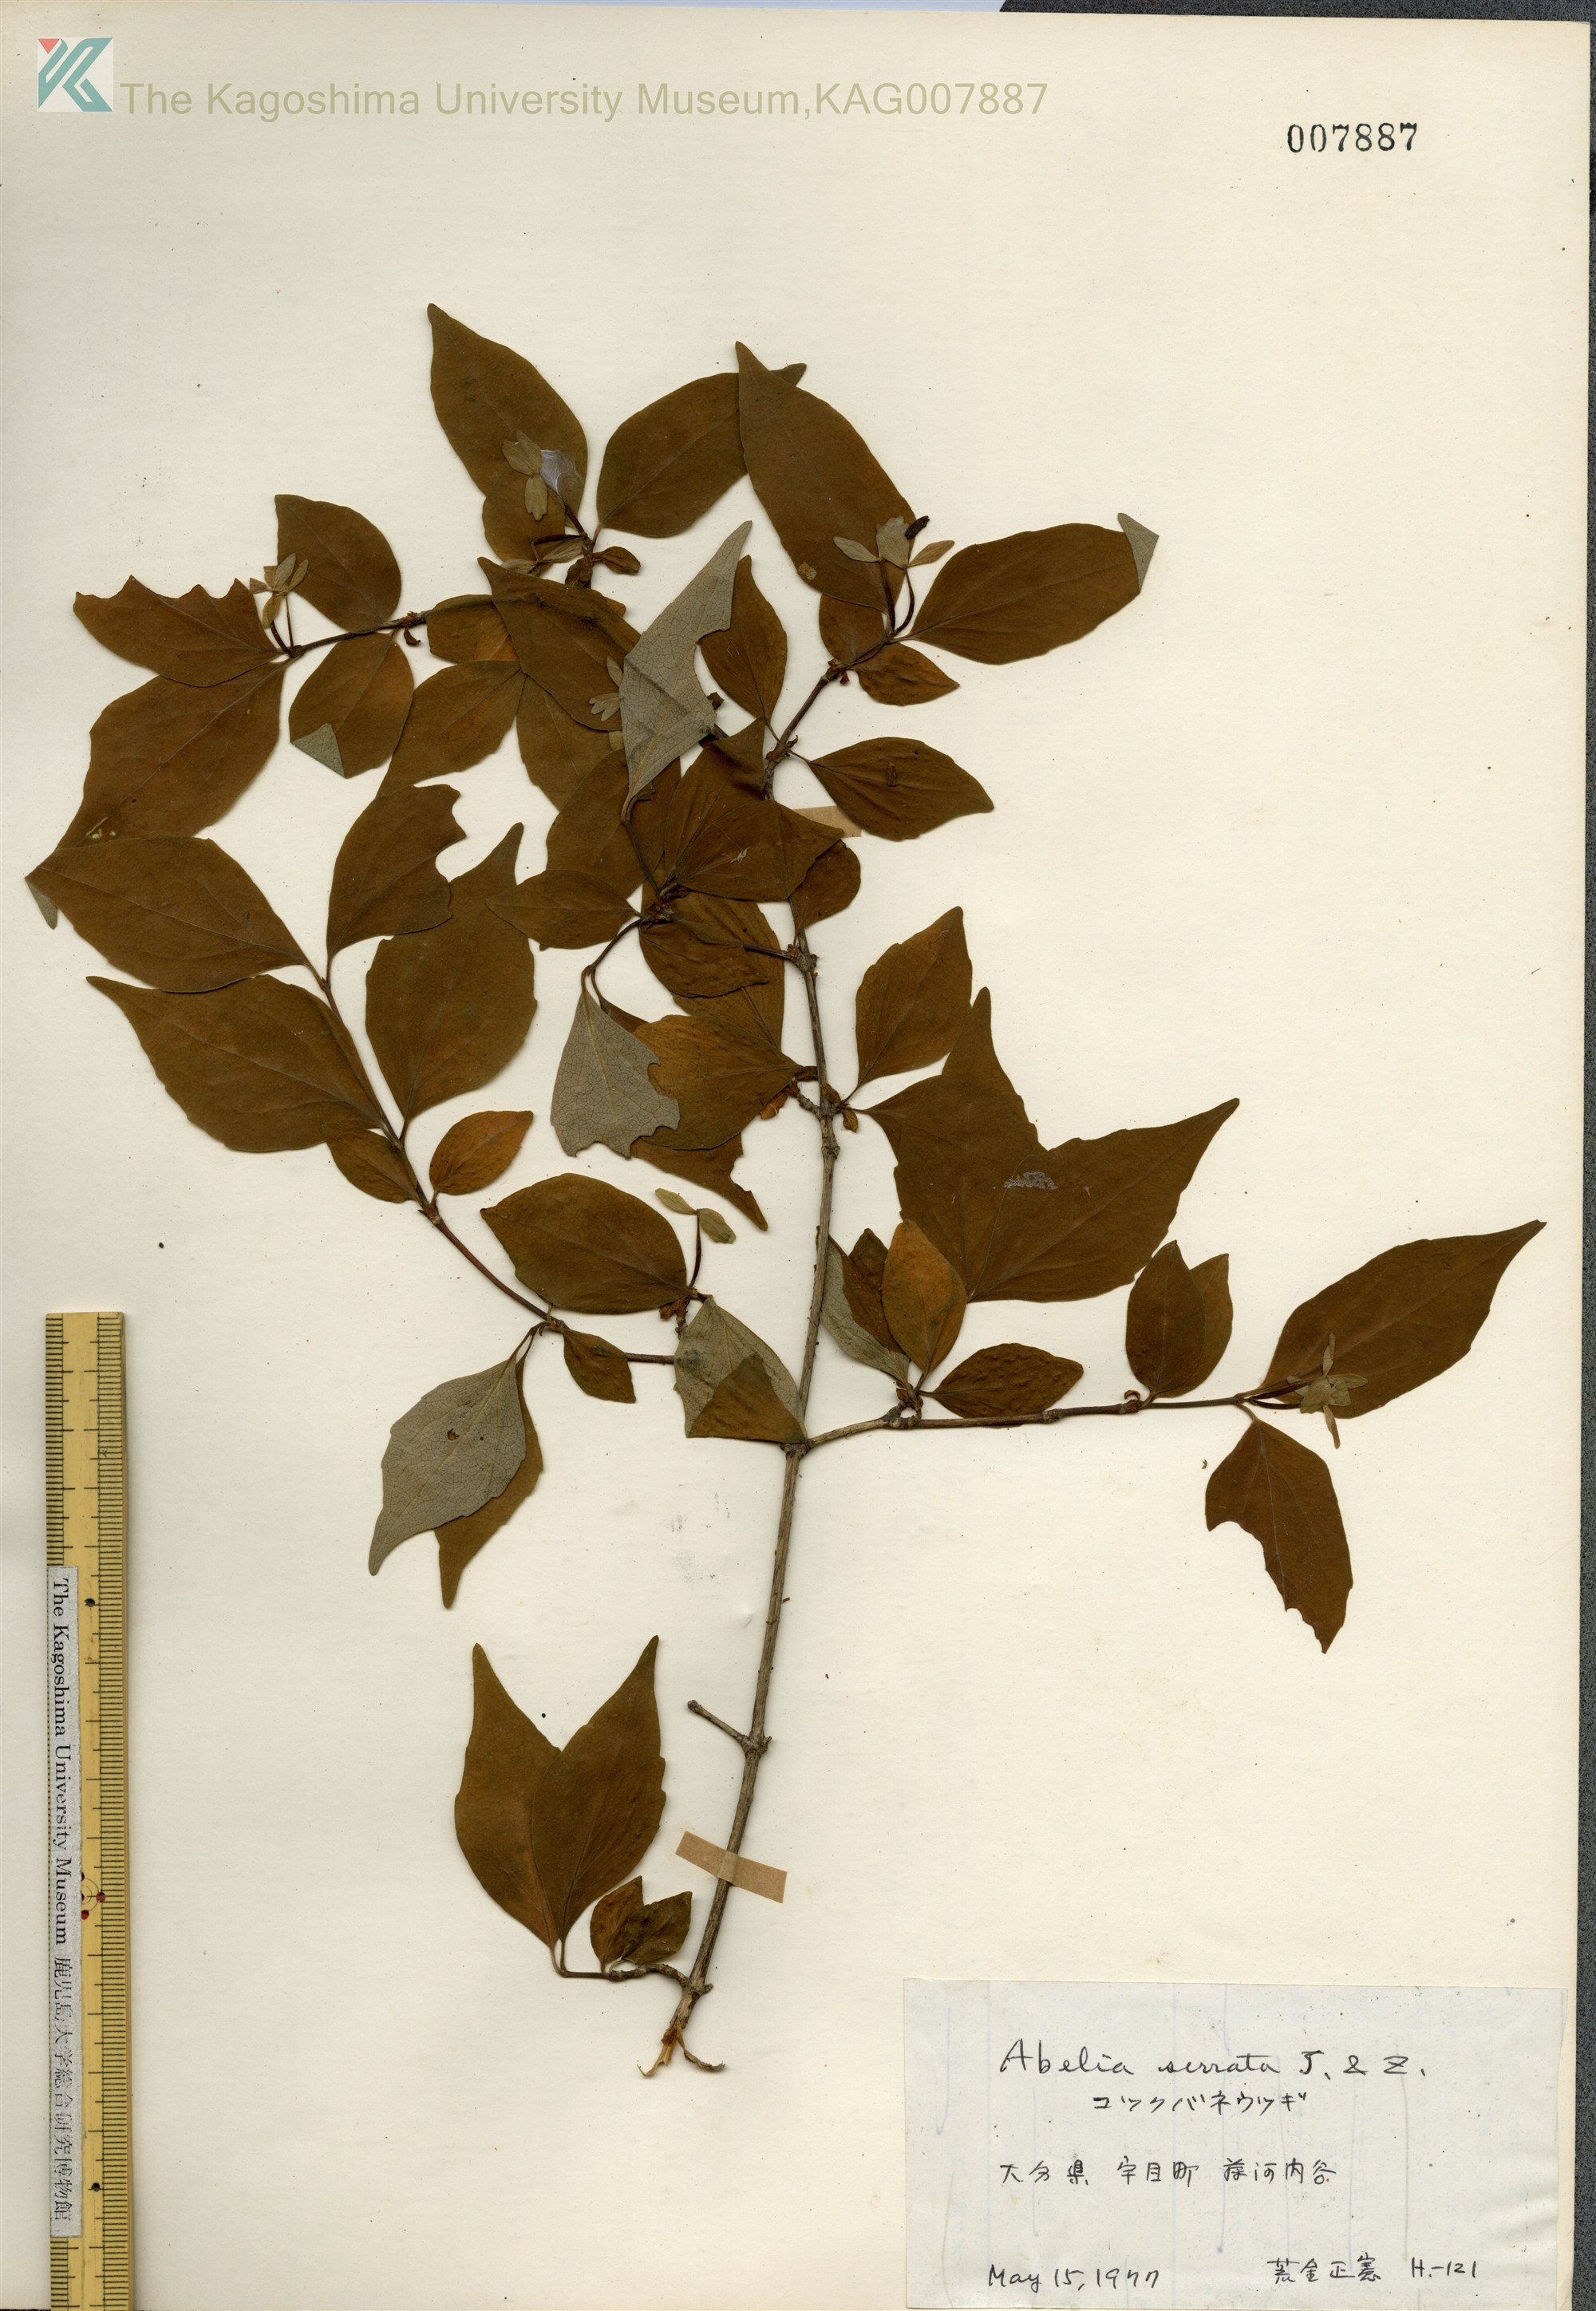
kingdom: Plantae
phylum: Tracheophyta
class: Magnoliopsida
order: Dipsacales
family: Caprifoliaceae
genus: Diabelia
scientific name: Diabelia serrata
